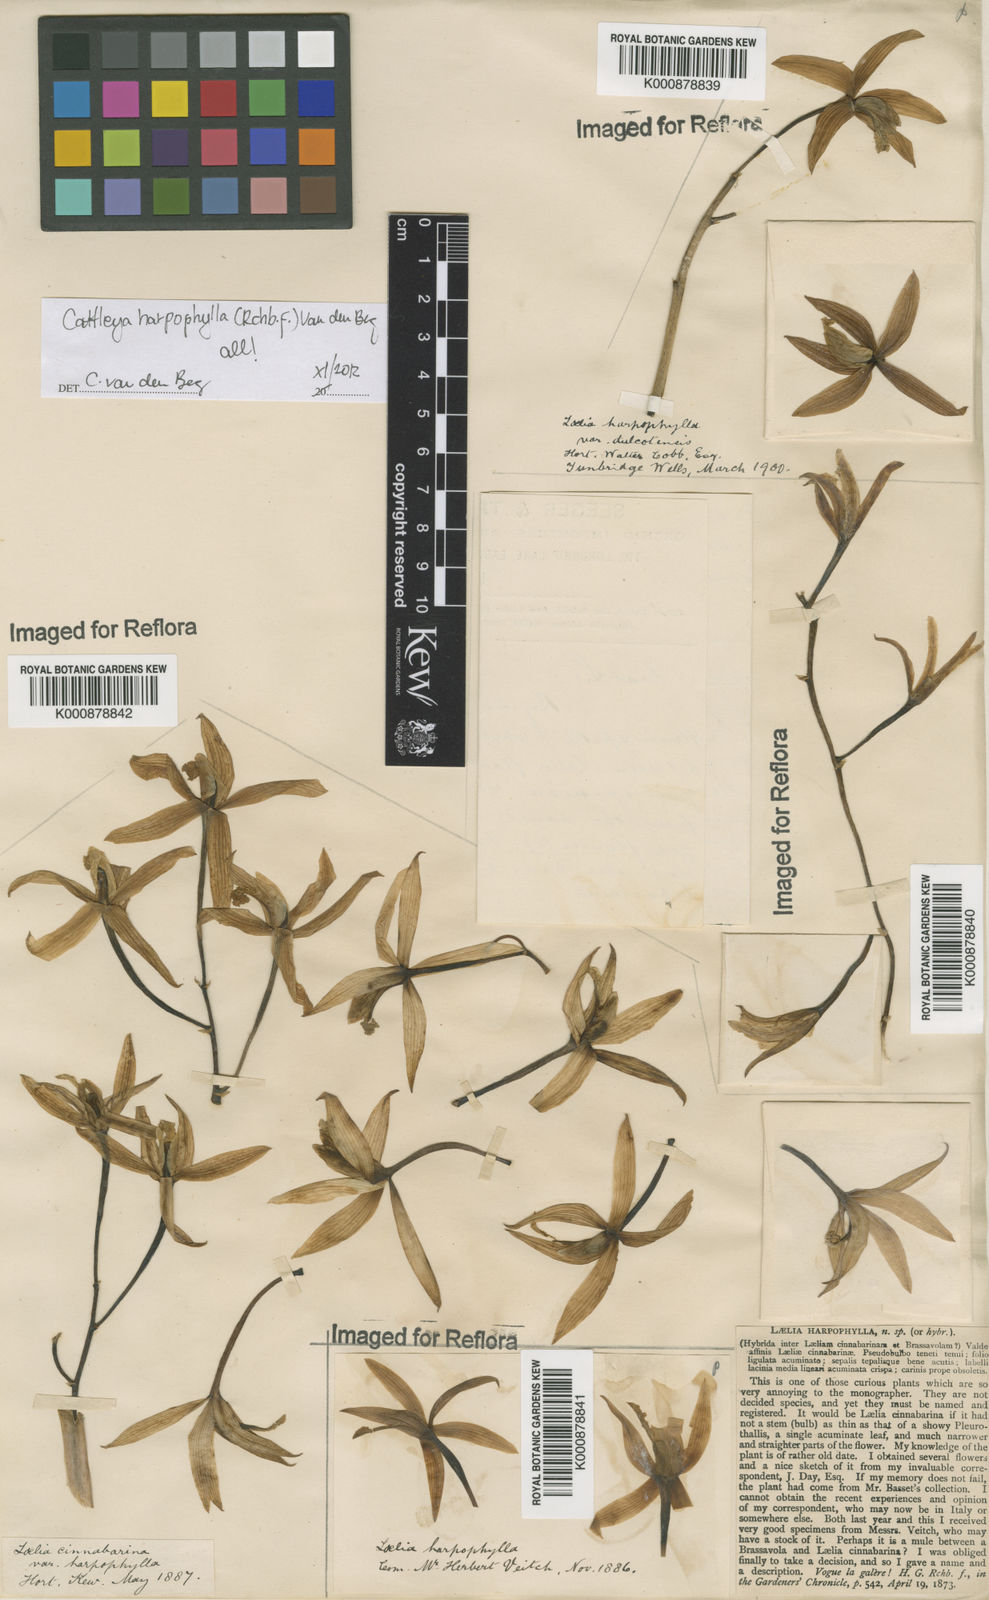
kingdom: Plantae
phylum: Tracheophyta
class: Liliopsida
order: Asparagales
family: Orchidaceae
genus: Cattleya
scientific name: Cattleya harpophylla
